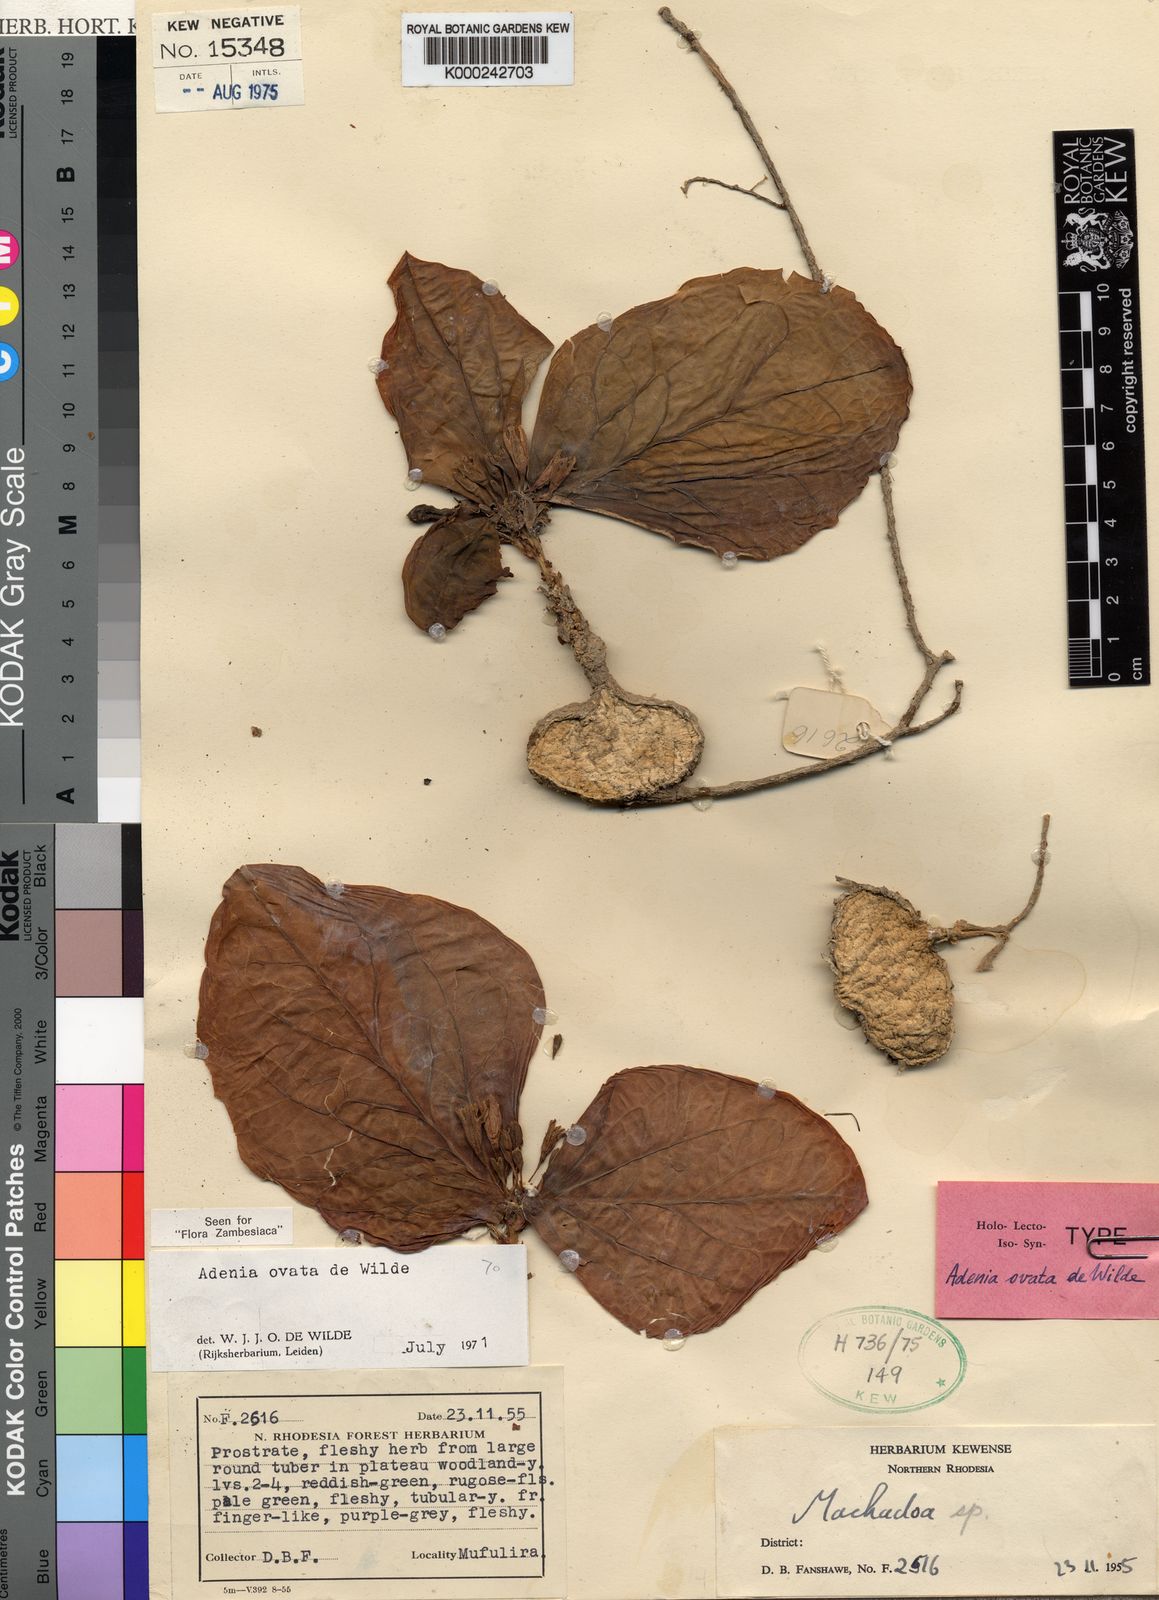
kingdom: Plantae
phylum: Tracheophyta
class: Magnoliopsida
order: Malpighiales
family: Passifloraceae
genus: Adenia
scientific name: Adenia ovata
